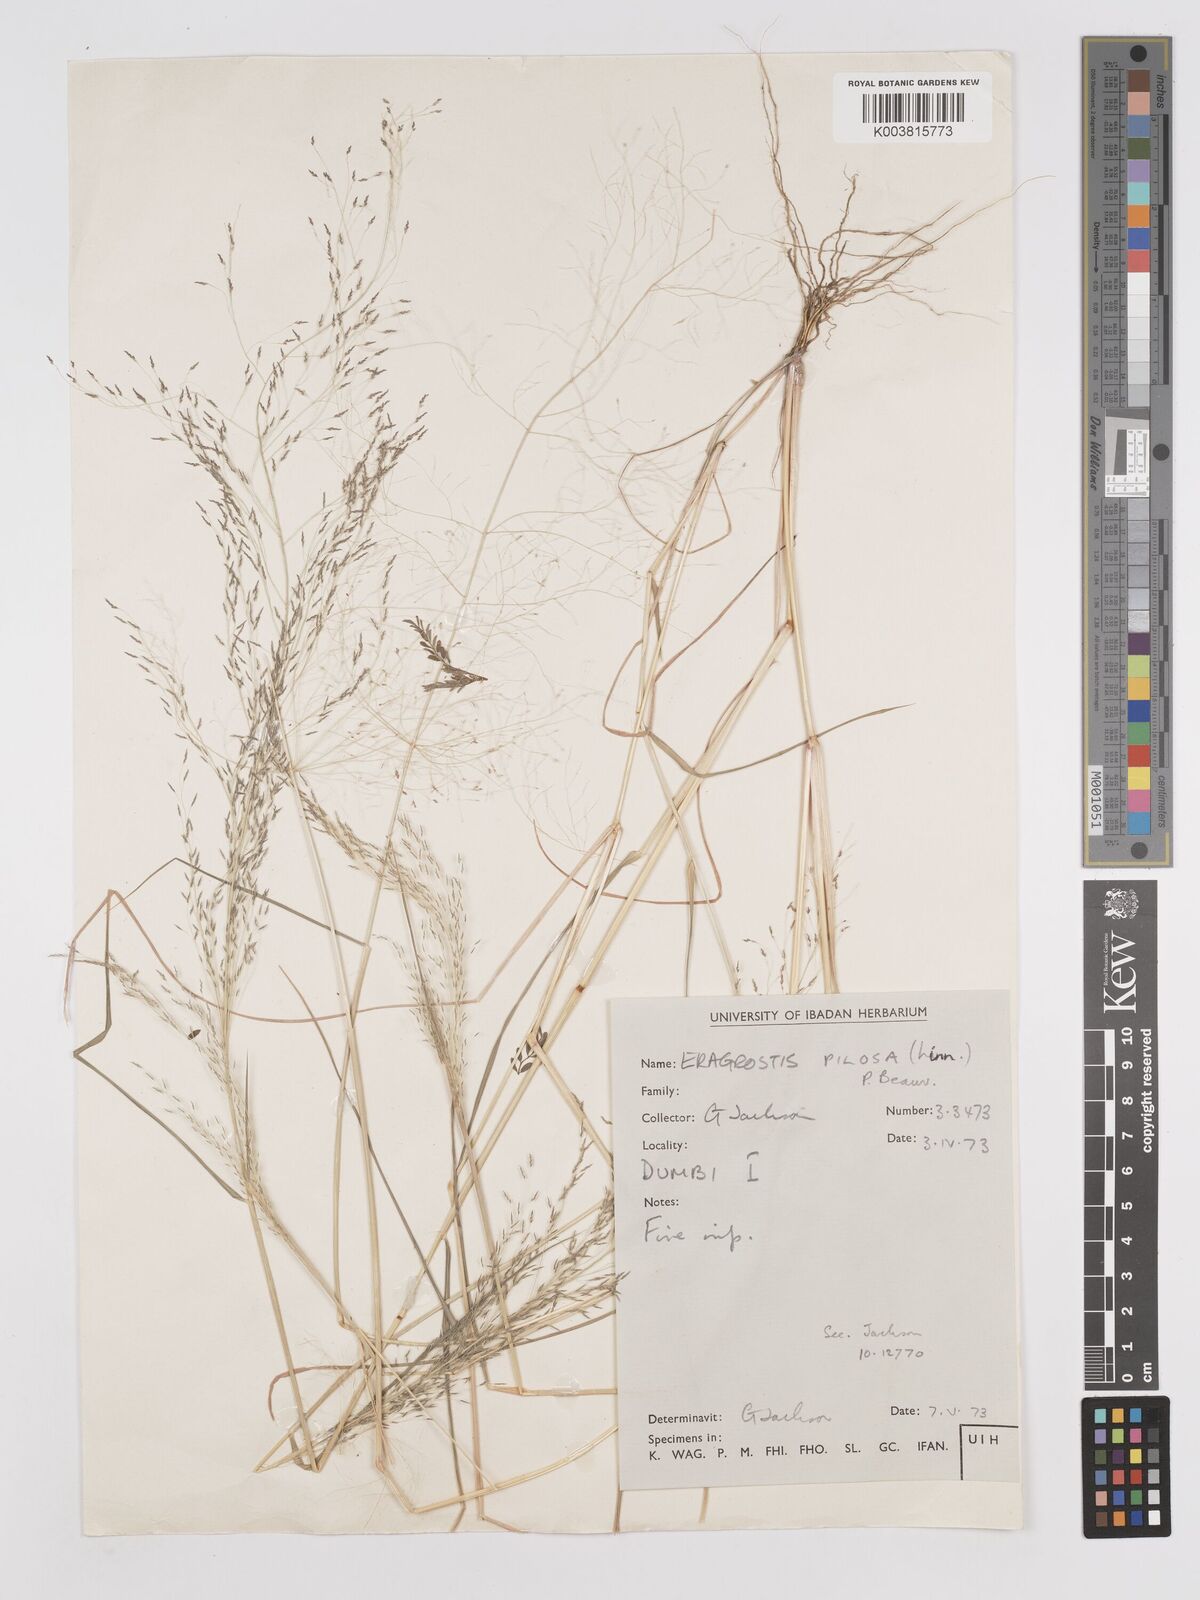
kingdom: Plantae
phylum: Tracheophyta
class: Liliopsida
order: Poales
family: Poaceae
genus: Eragrostis
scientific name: Eragrostis pilosa
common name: Indian lovegrass
